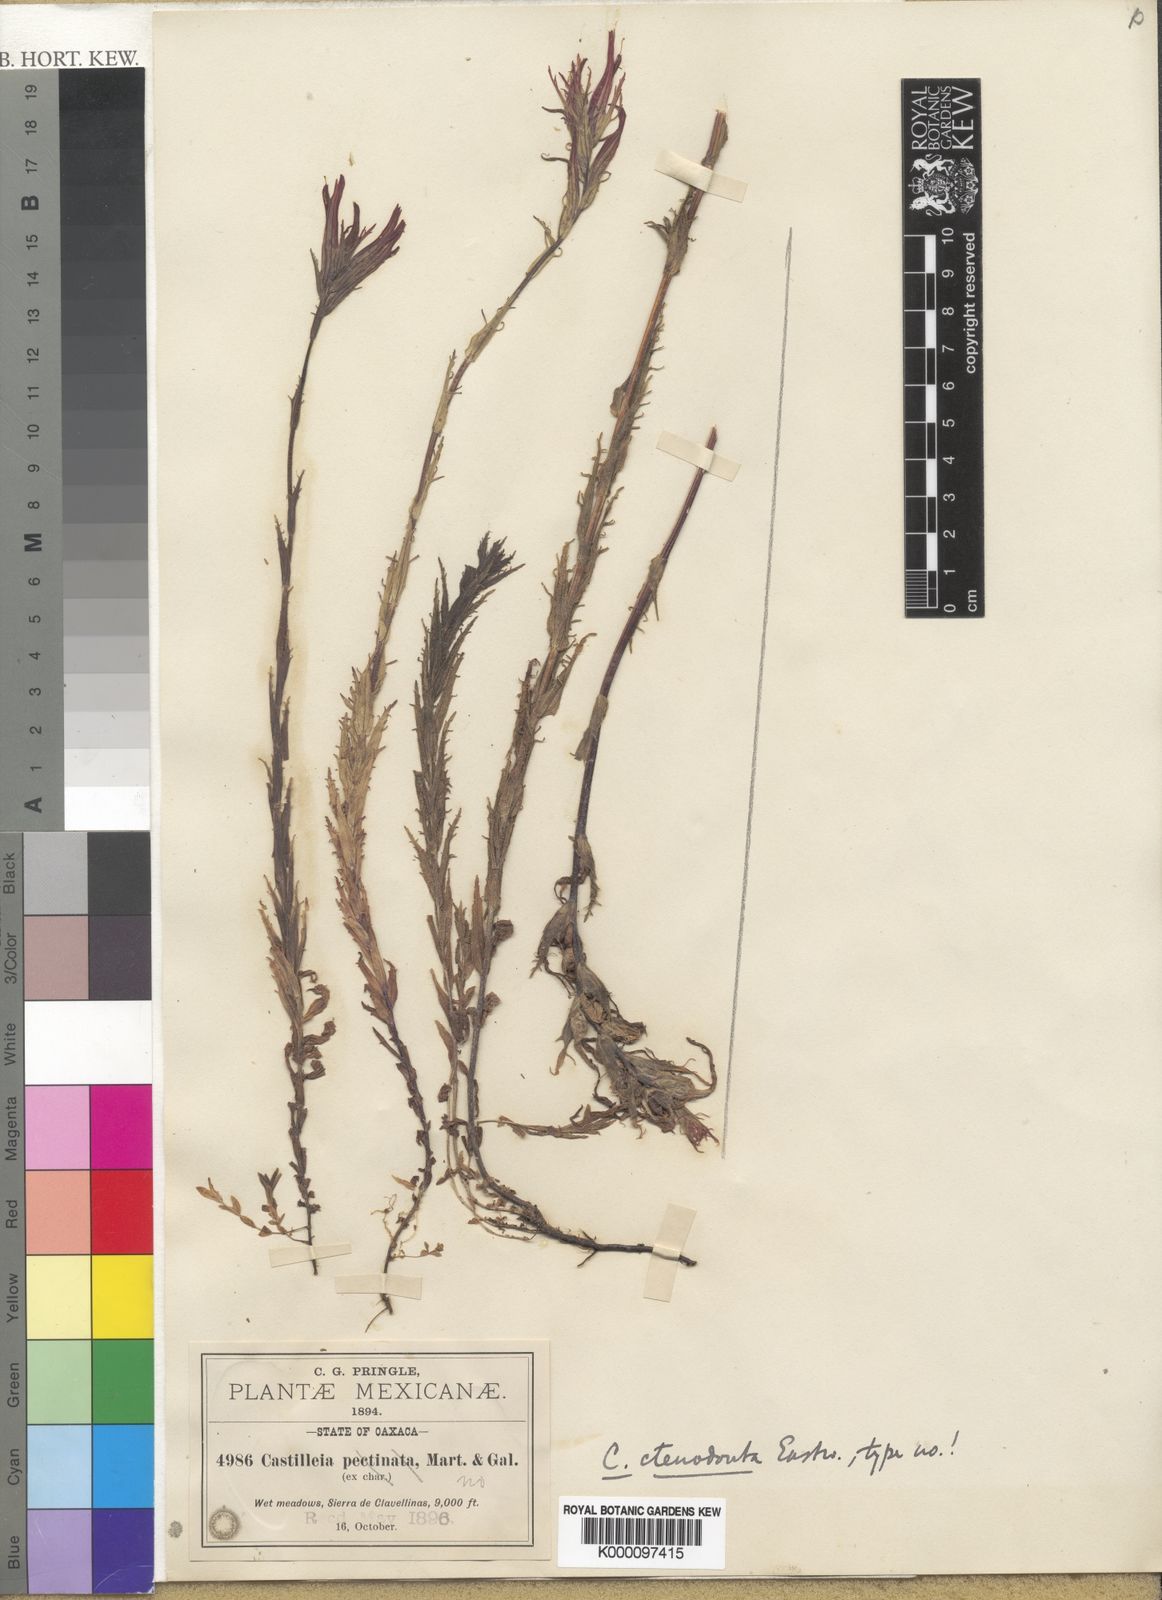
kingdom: Plantae
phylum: Tracheophyta
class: Magnoliopsida
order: Lamiales
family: Orobanchaceae
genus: Castilleja
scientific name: Castilleja ctenodonta
